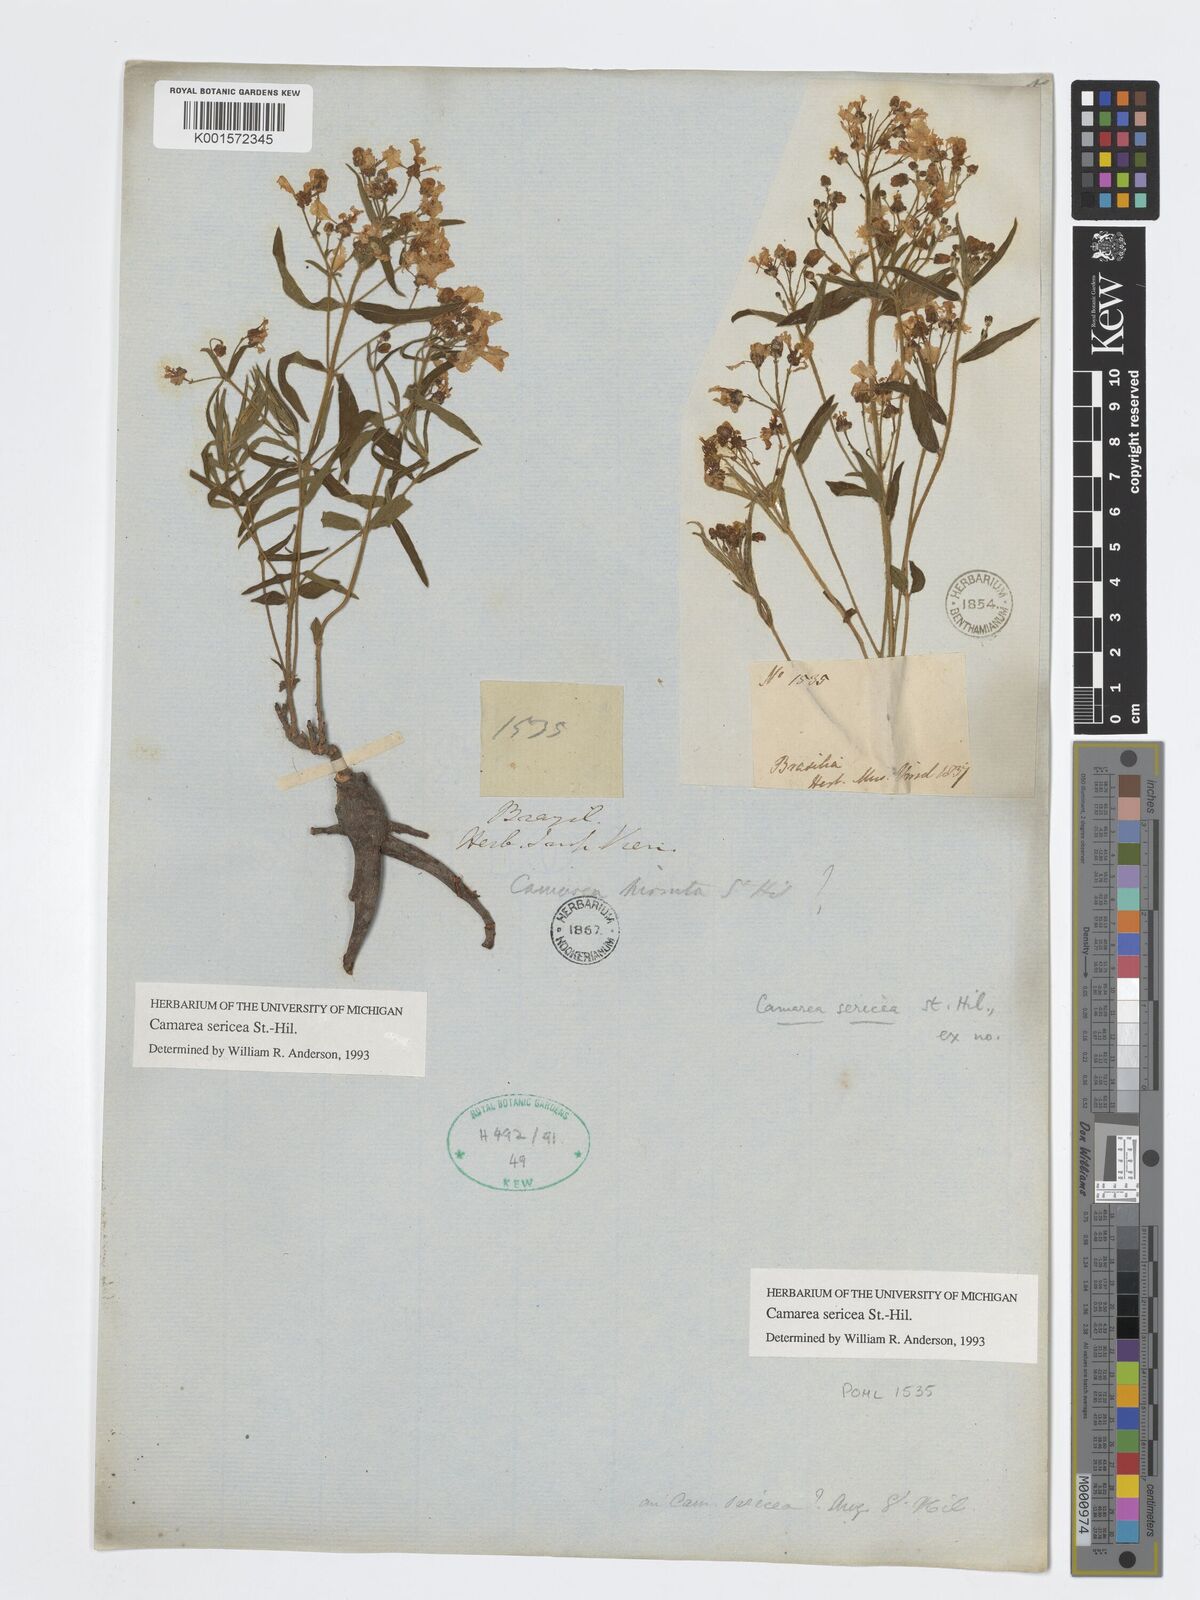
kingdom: Plantae
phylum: Tracheophyta
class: Magnoliopsida
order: Malpighiales
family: Malpighiaceae
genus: Camarea
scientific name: Camarea sericea
